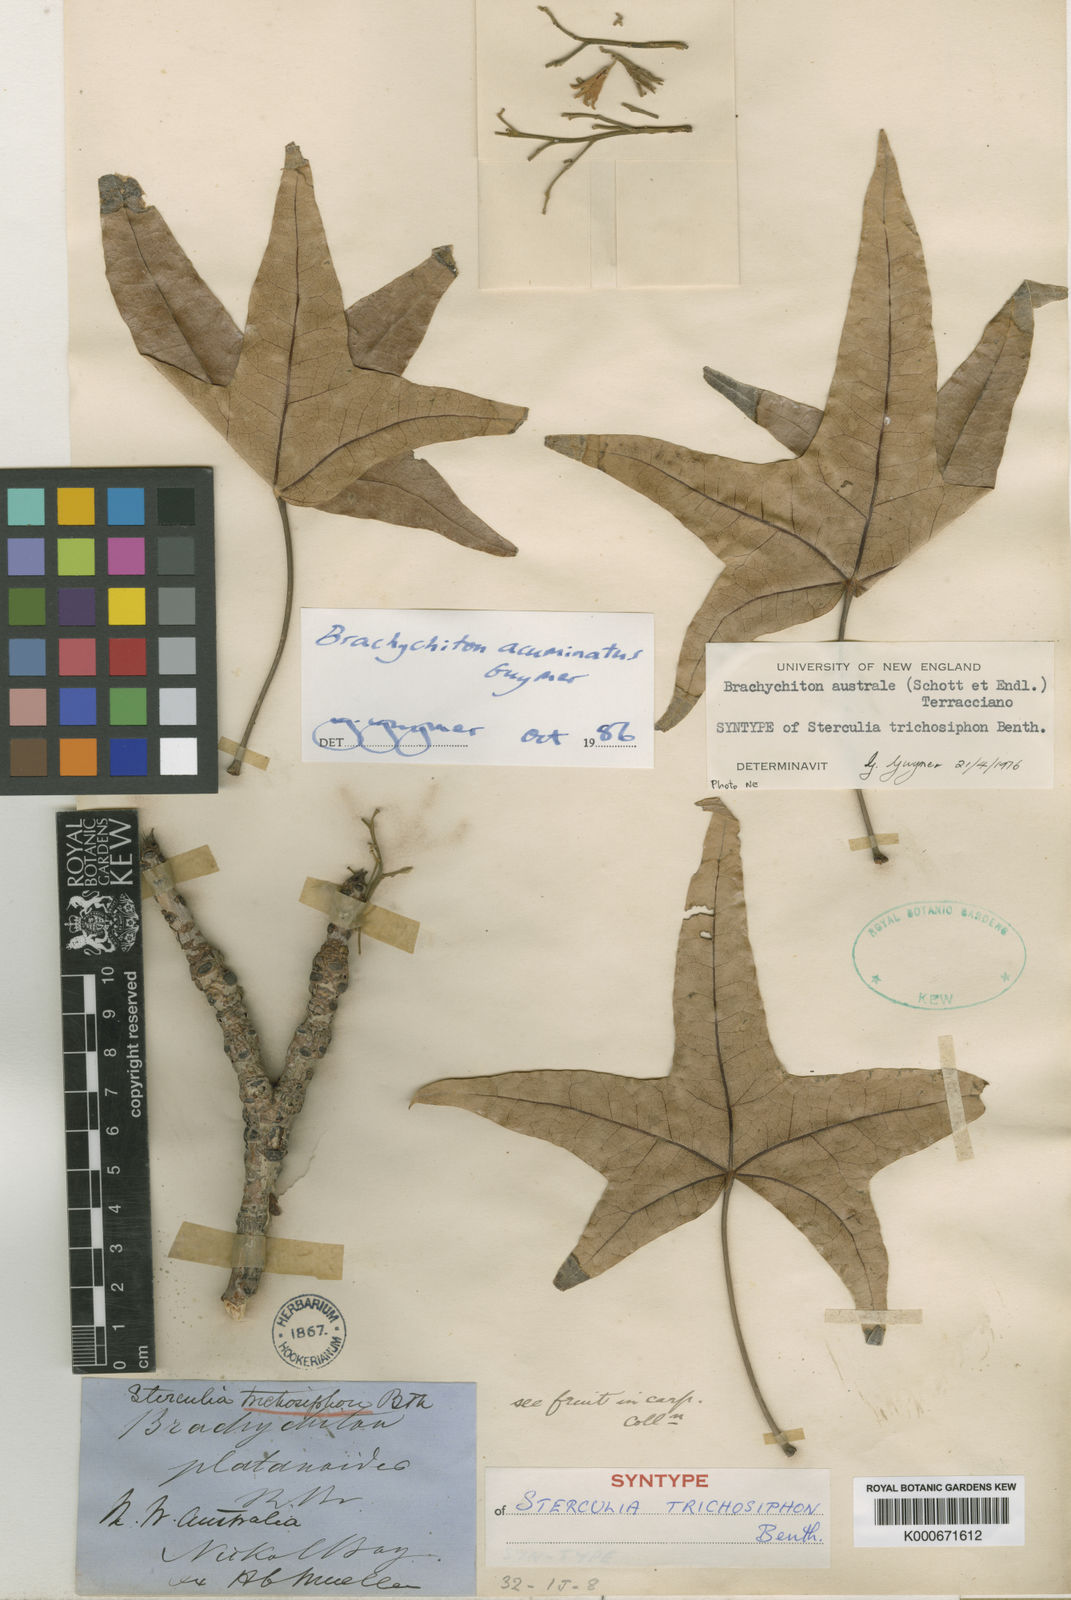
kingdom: Plantae
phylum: Tracheophyta
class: Magnoliopsida
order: Malvales
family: Malvaceae
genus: Brachychiton
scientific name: Brachychiton acuminatus
